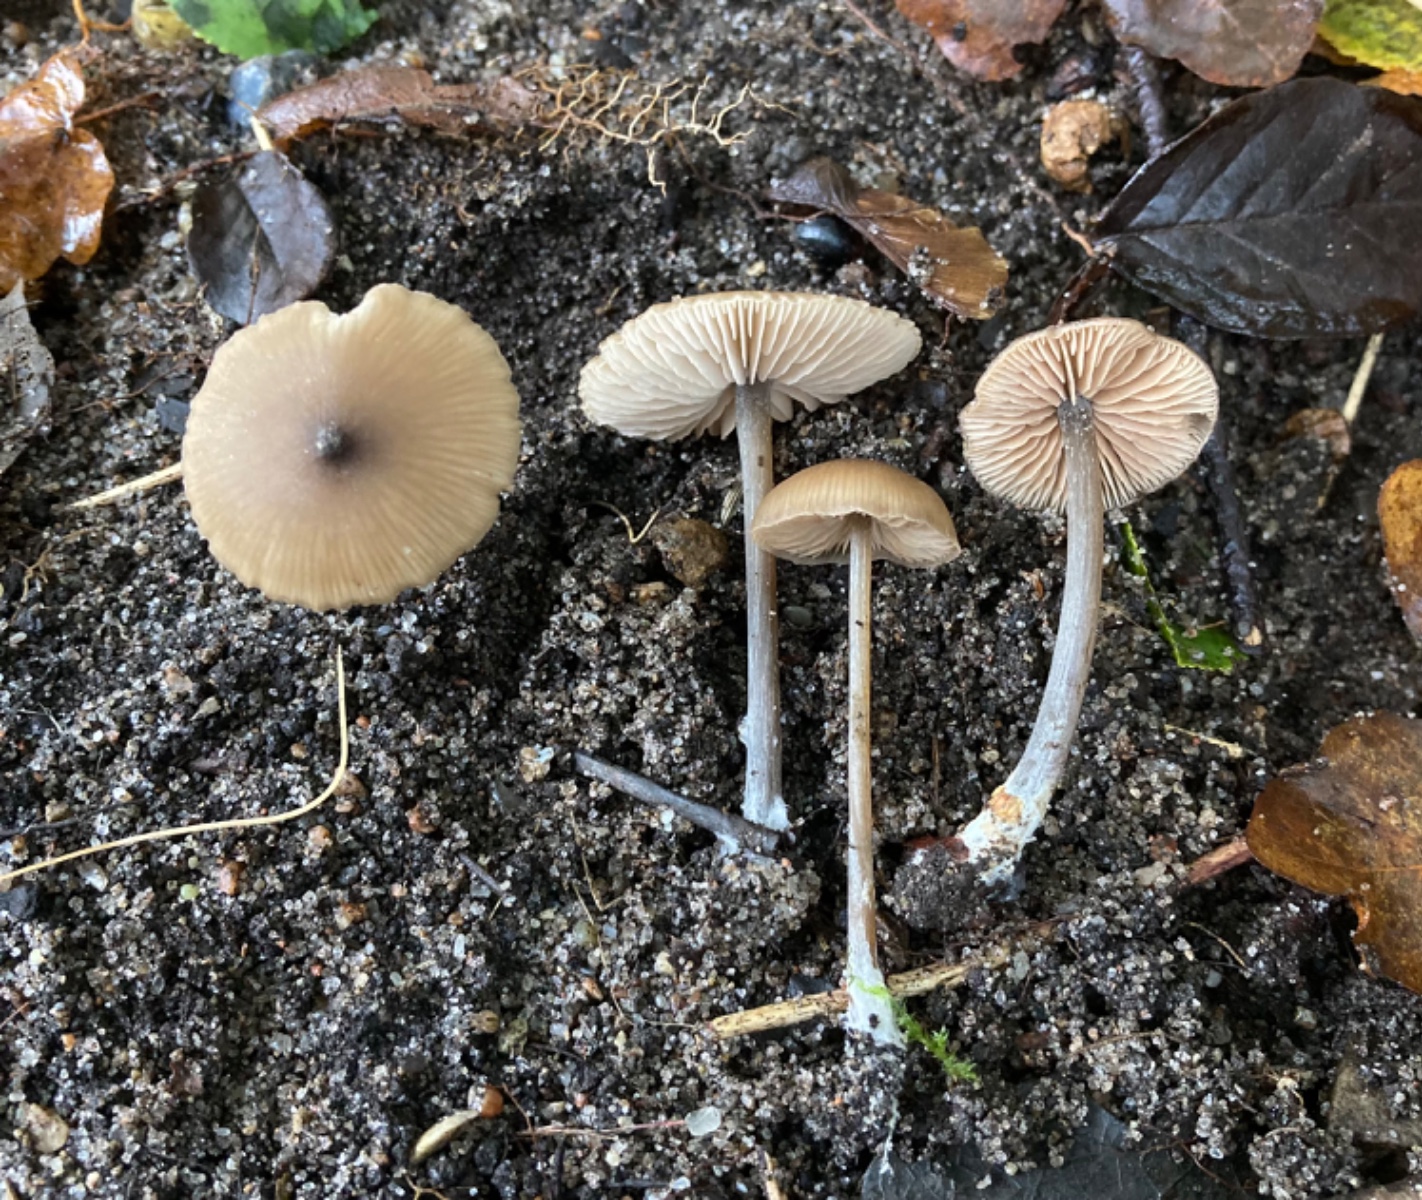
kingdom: Fungi
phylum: Basidiomycota
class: Agaricomycetes
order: Agaricales
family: Entolomataceae
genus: Entoloma
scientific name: Entoloma
